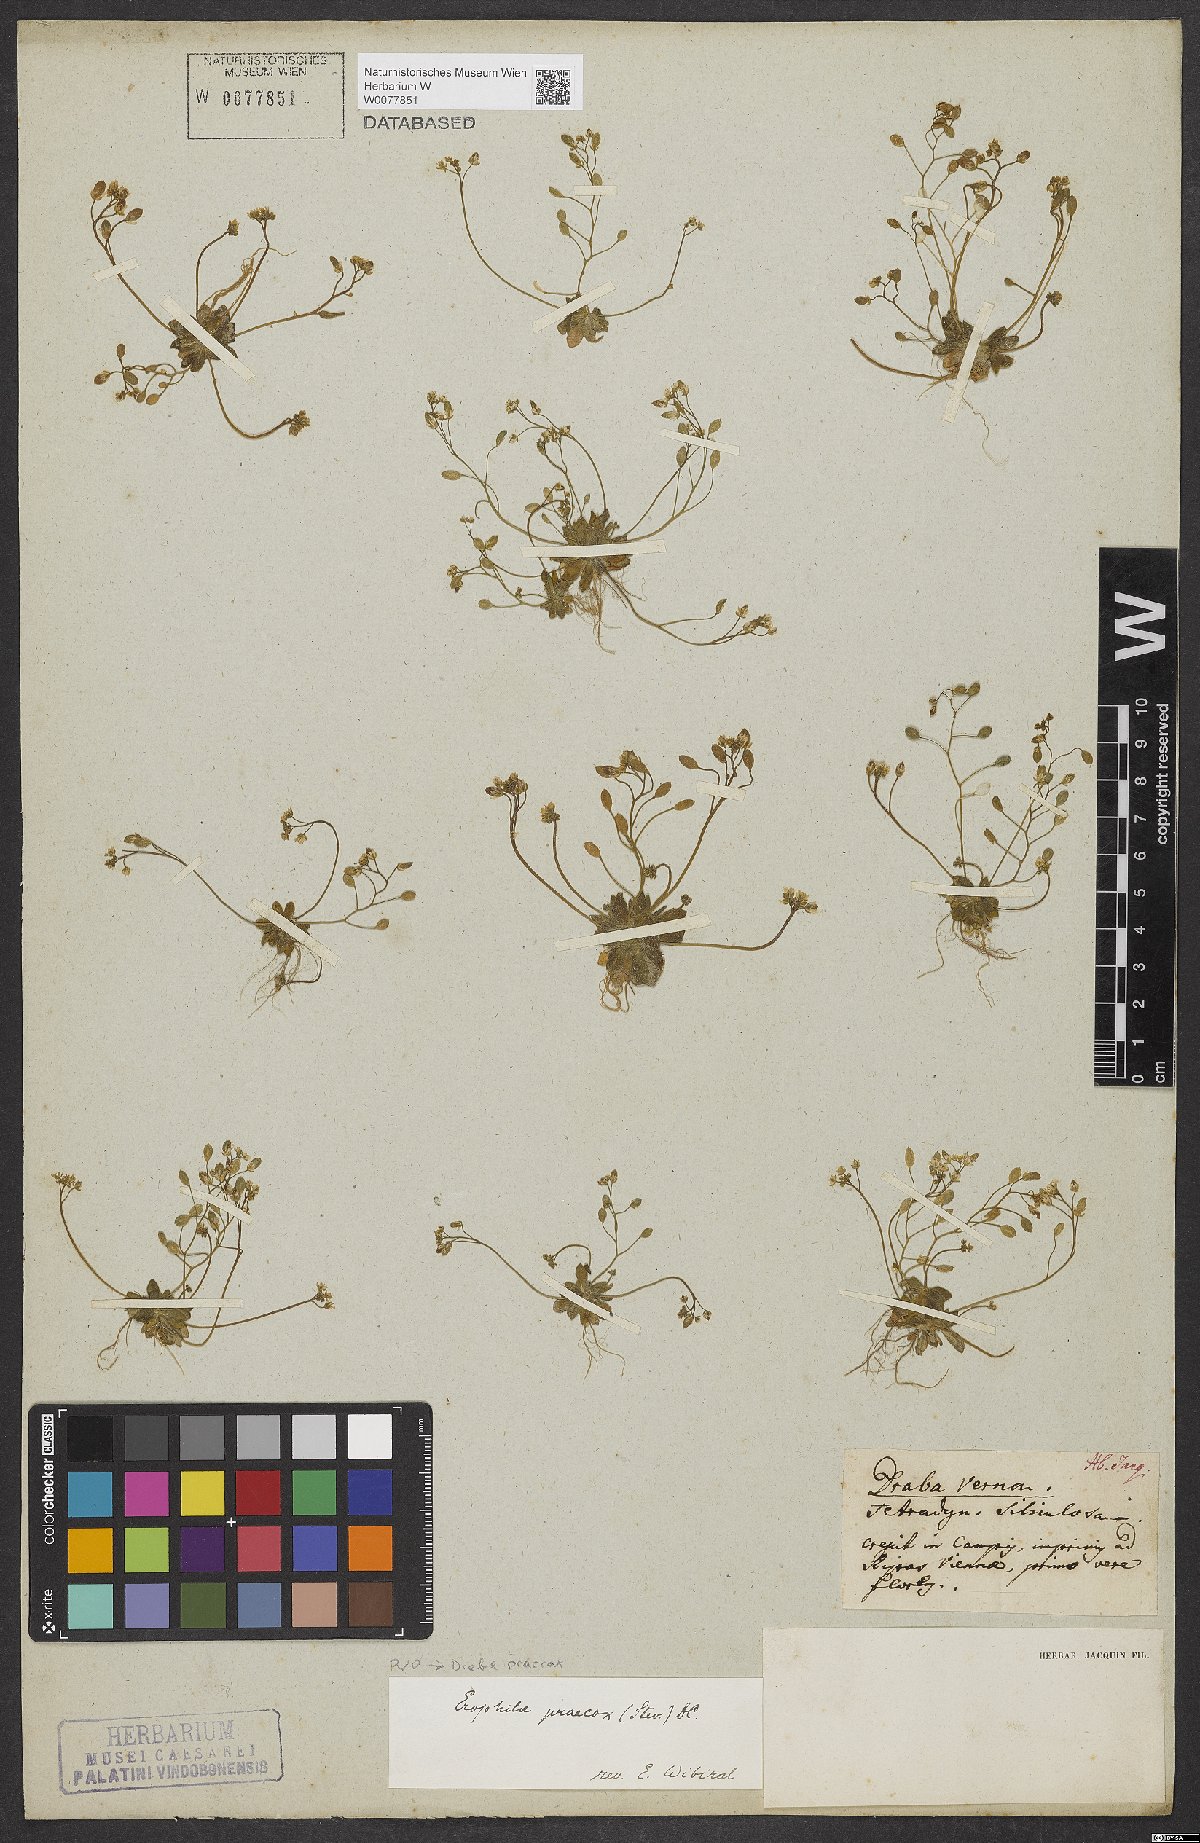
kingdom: Plantae
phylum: Tracheophyta
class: Magnoliopsida
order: Brassicales
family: Brassicaceae
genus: Draba
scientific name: Draba verna
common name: Spring draba
